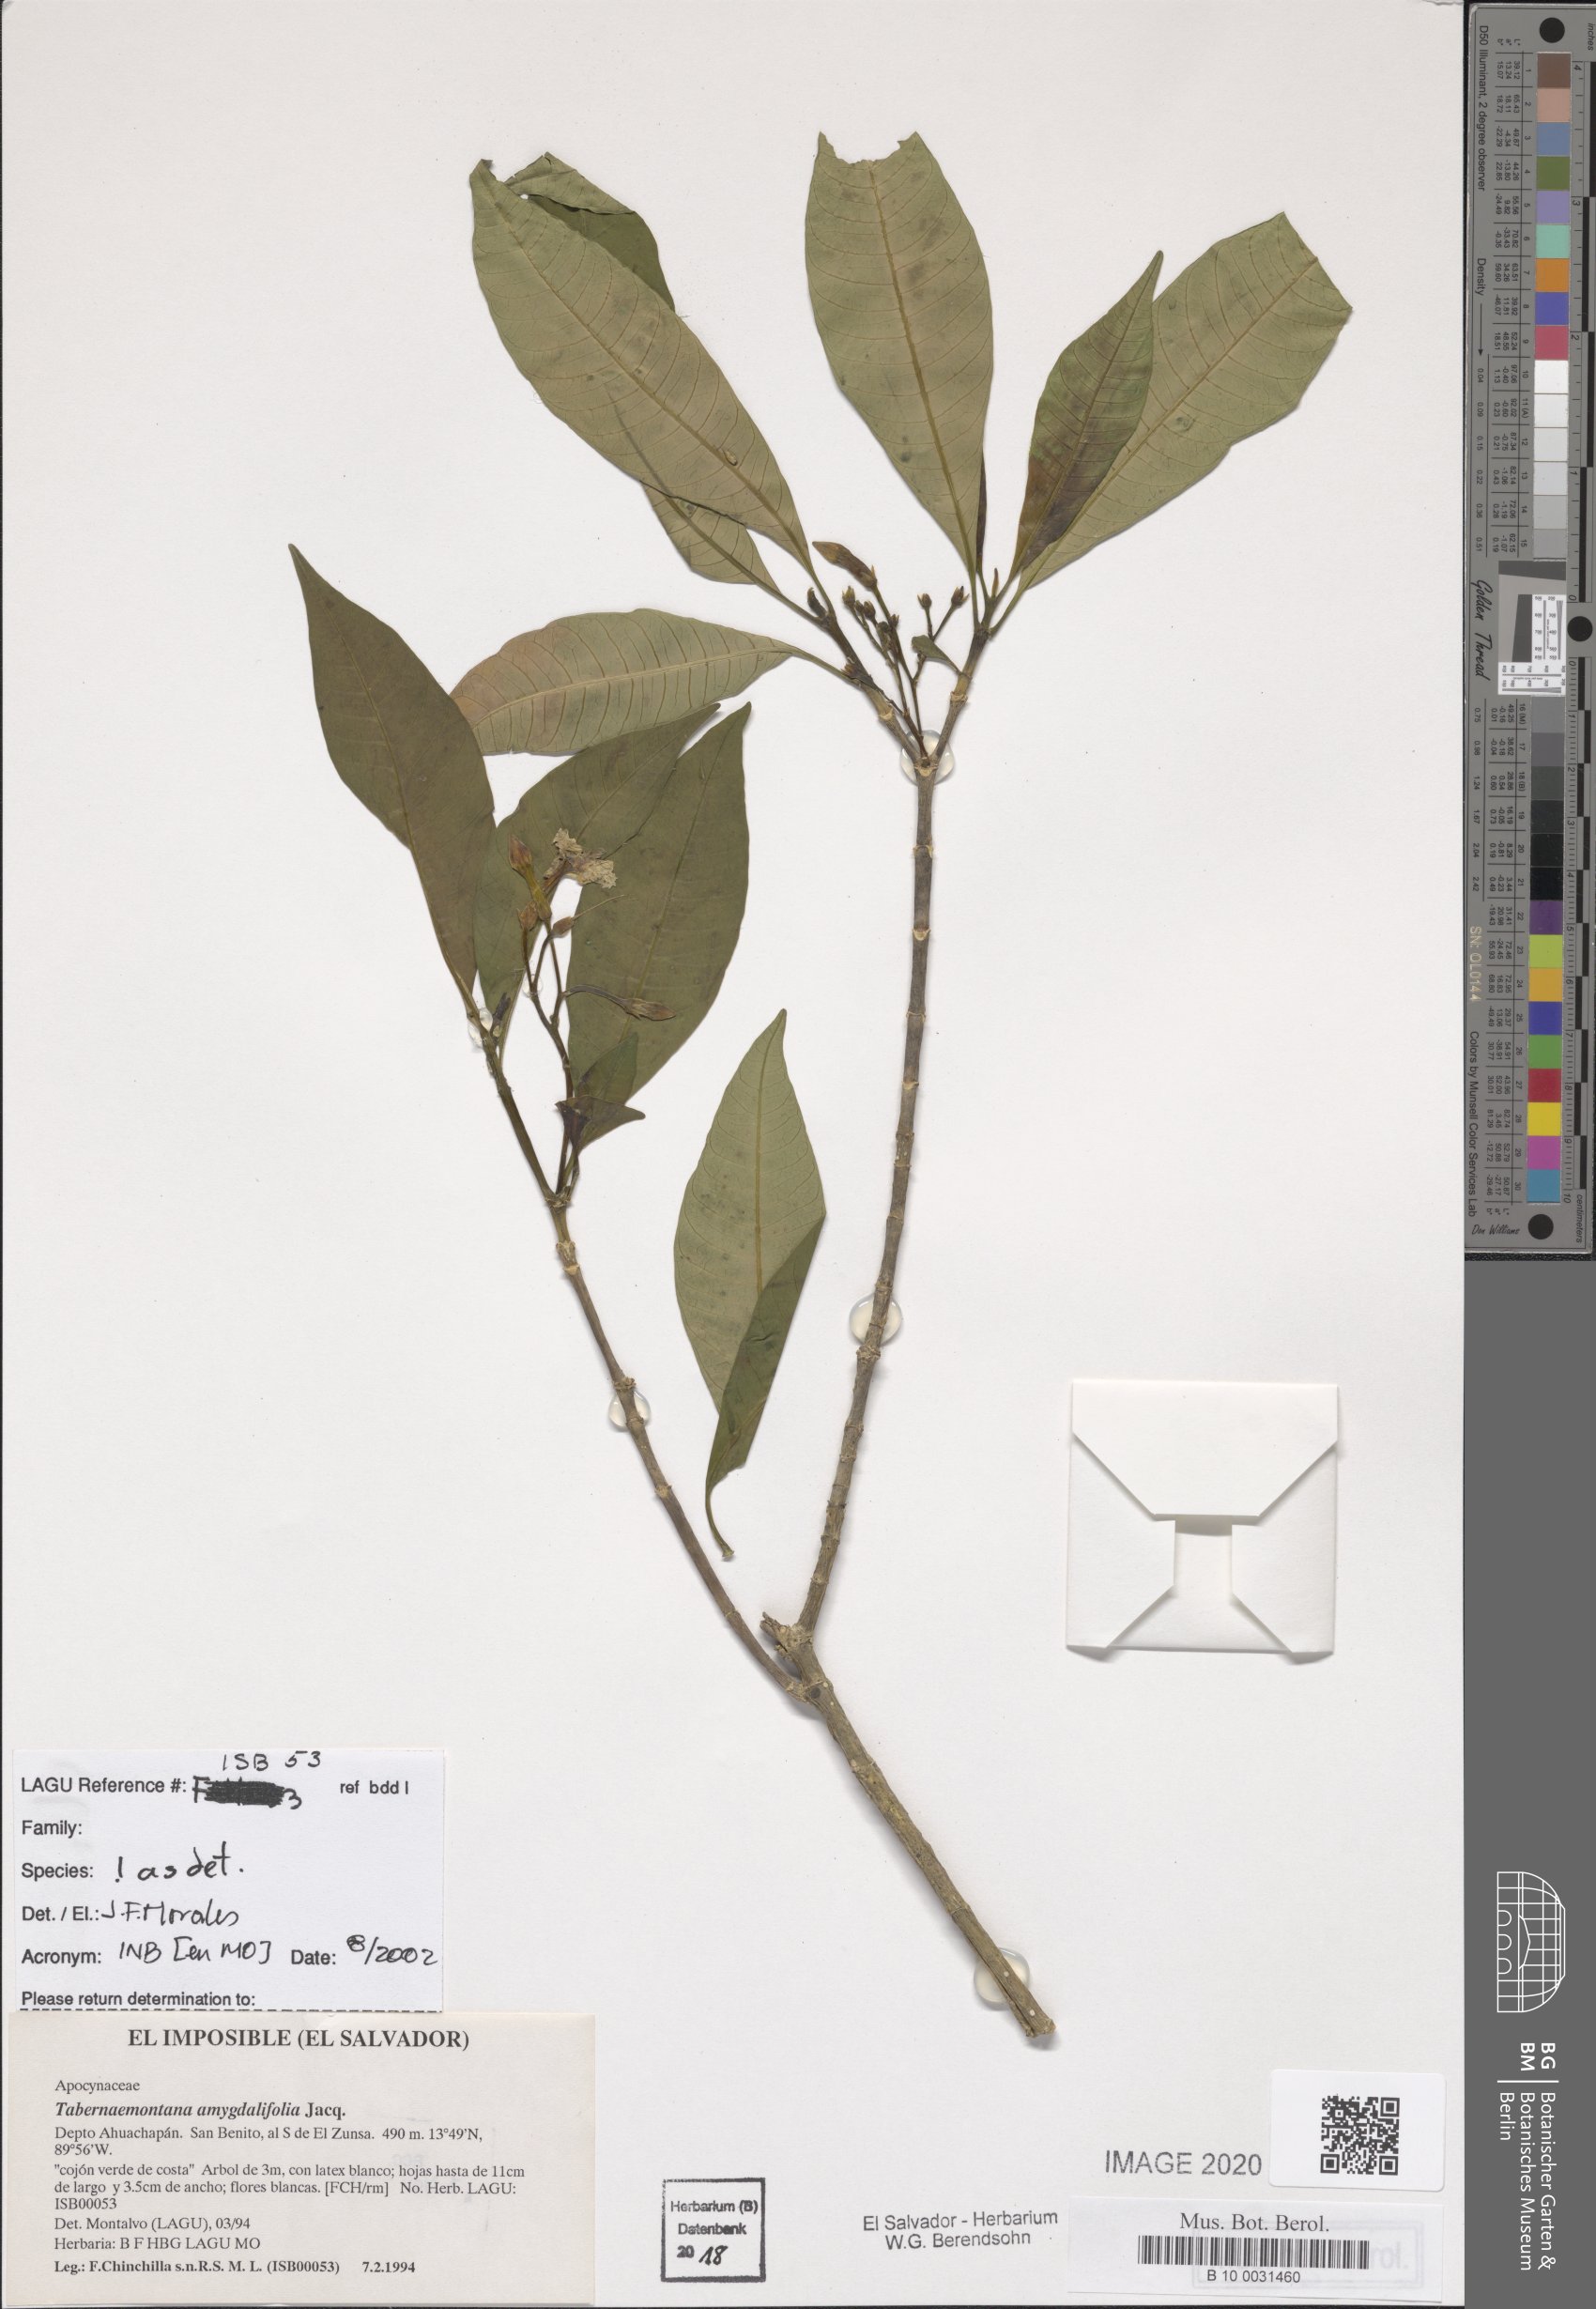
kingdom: Plantae
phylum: Tracheophyta
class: Magnoliopsida
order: Gentianales
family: Apocynaceae
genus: Tabernaemontana
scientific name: Tabernaemontana amygdalifolia
